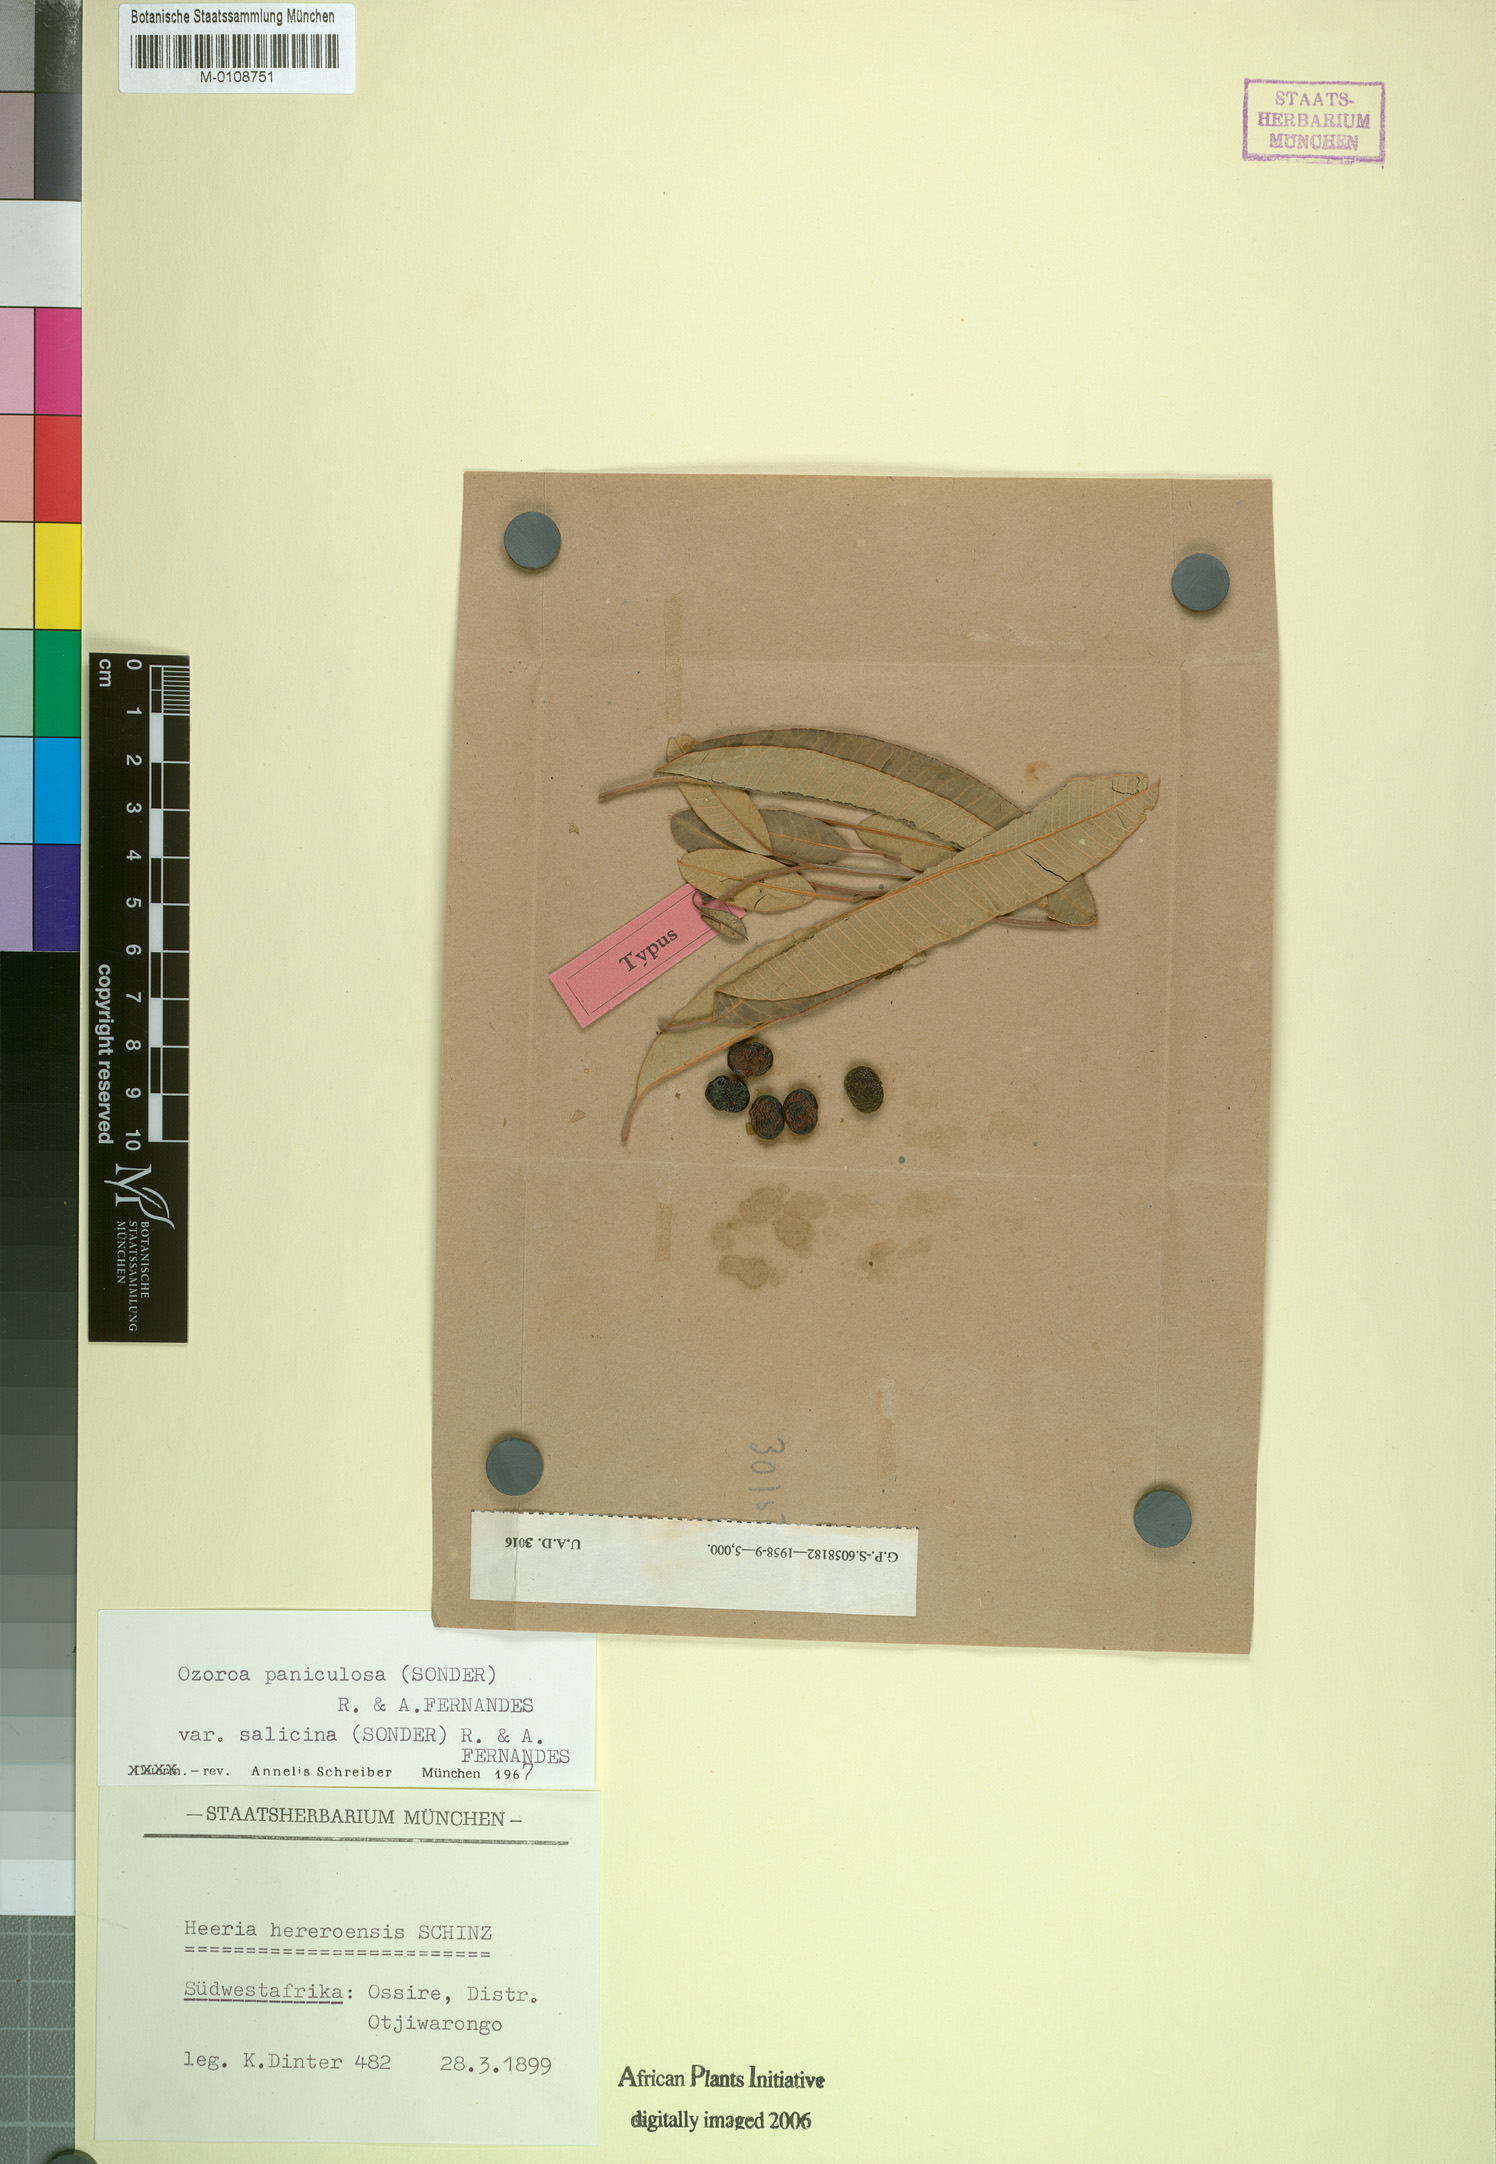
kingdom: Plantae
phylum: Tracheophyta
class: Magnoliopsida
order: Sapindales
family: Anacardiaceae
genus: Ozoroa
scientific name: Ozoroa paniculosa
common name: Bushveld ozoroa
